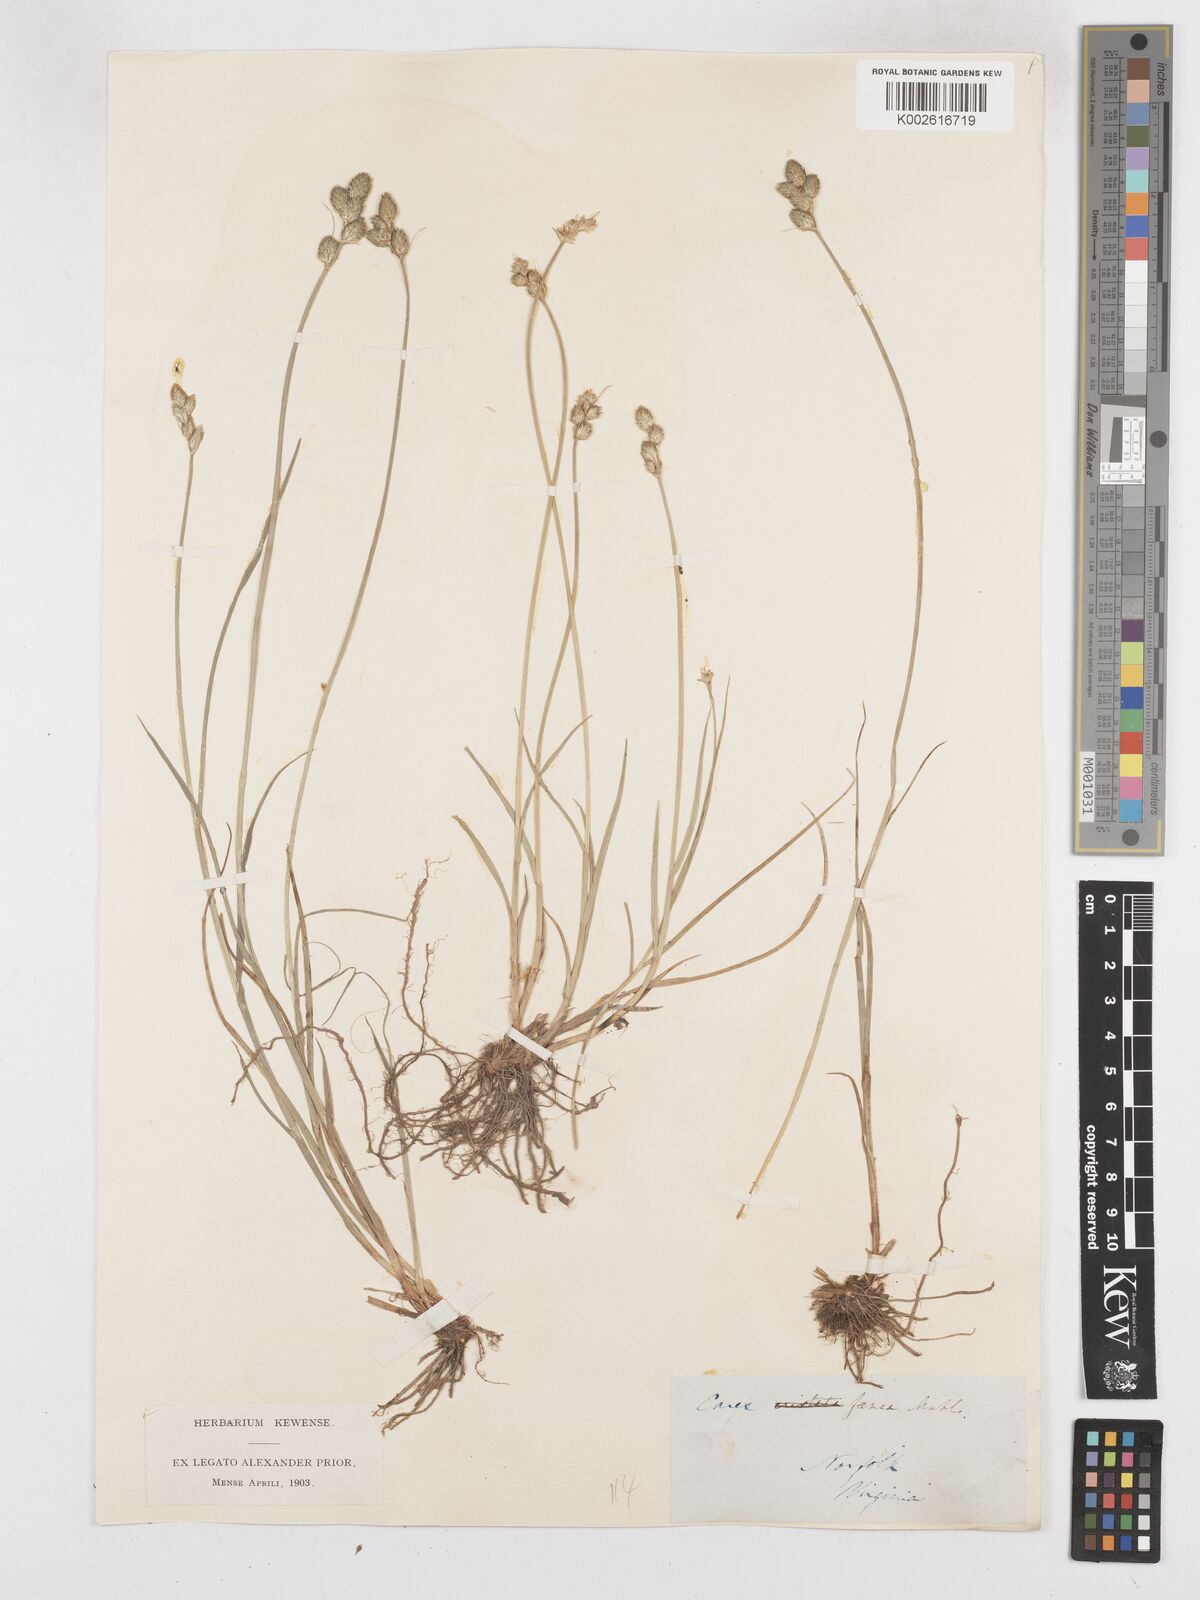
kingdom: Plantae
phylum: Tracheophyta
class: Liliopsida
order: Poales
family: Cyperaceae
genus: Carex
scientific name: Carex argyrantha
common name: Silvery-flowered sedge
